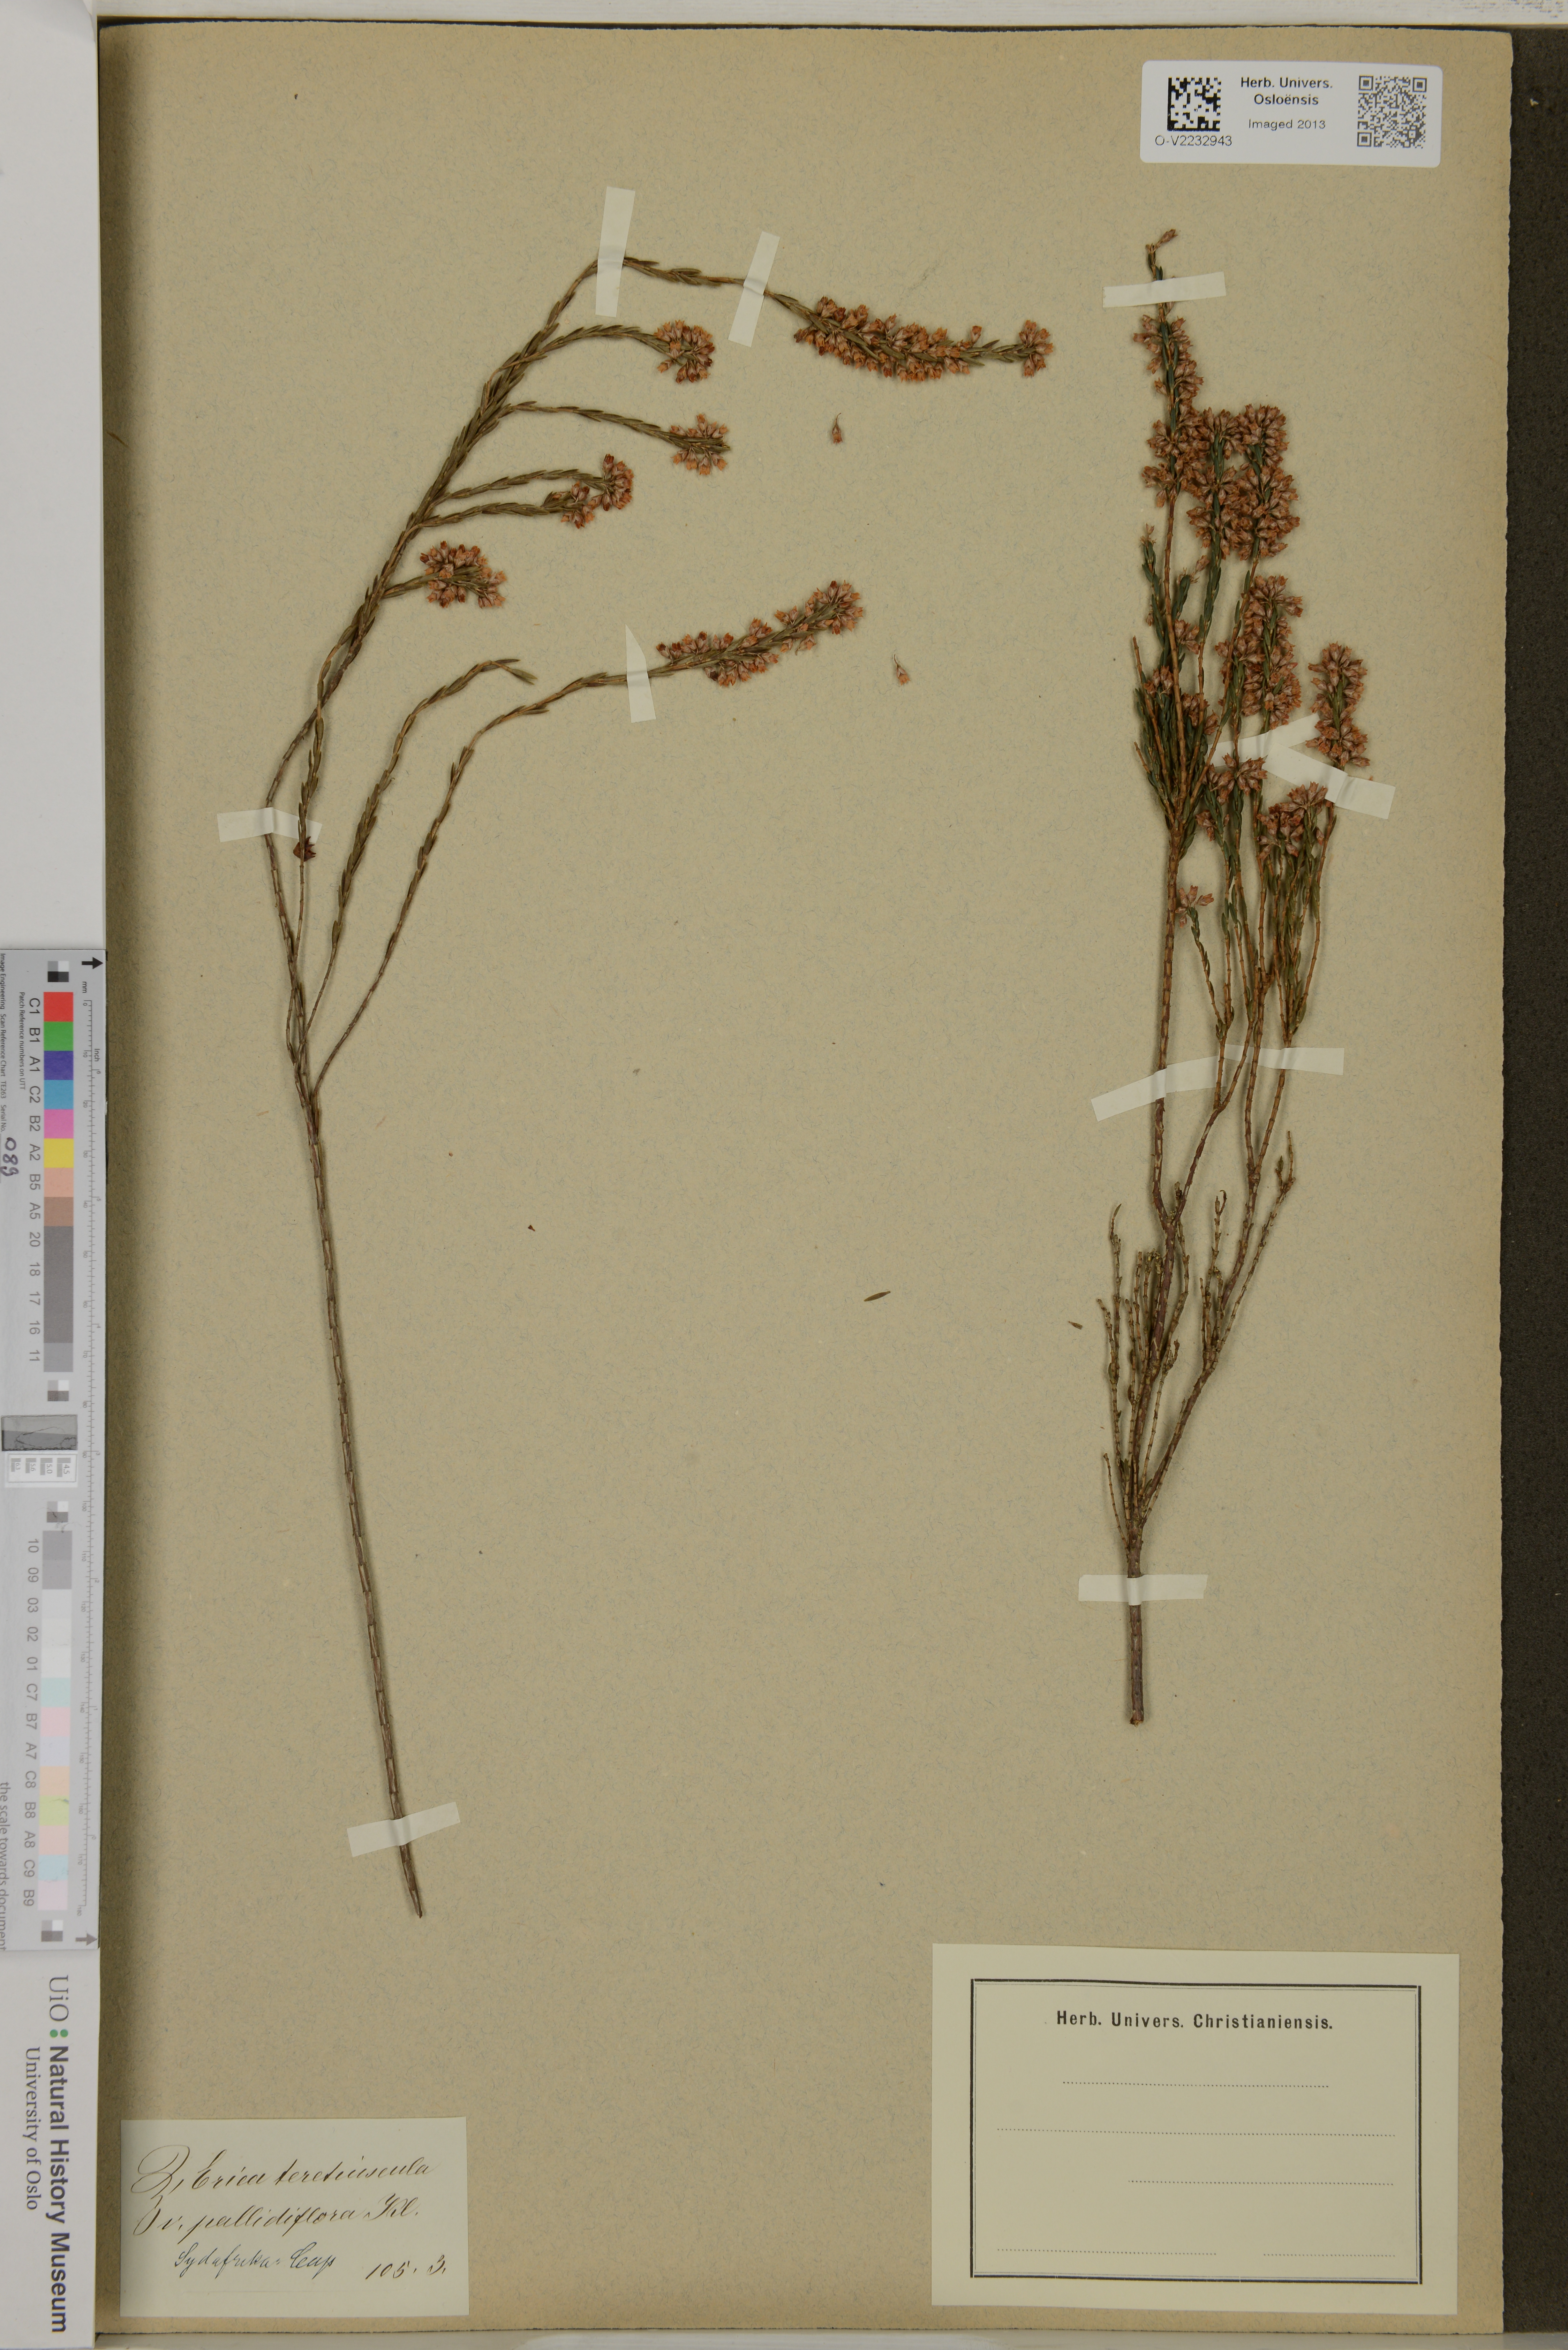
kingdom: Plantae
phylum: Tracheophyta
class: Magnoliopsida
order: Ericales
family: Ericaceae
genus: Erica
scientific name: Erica articularis
